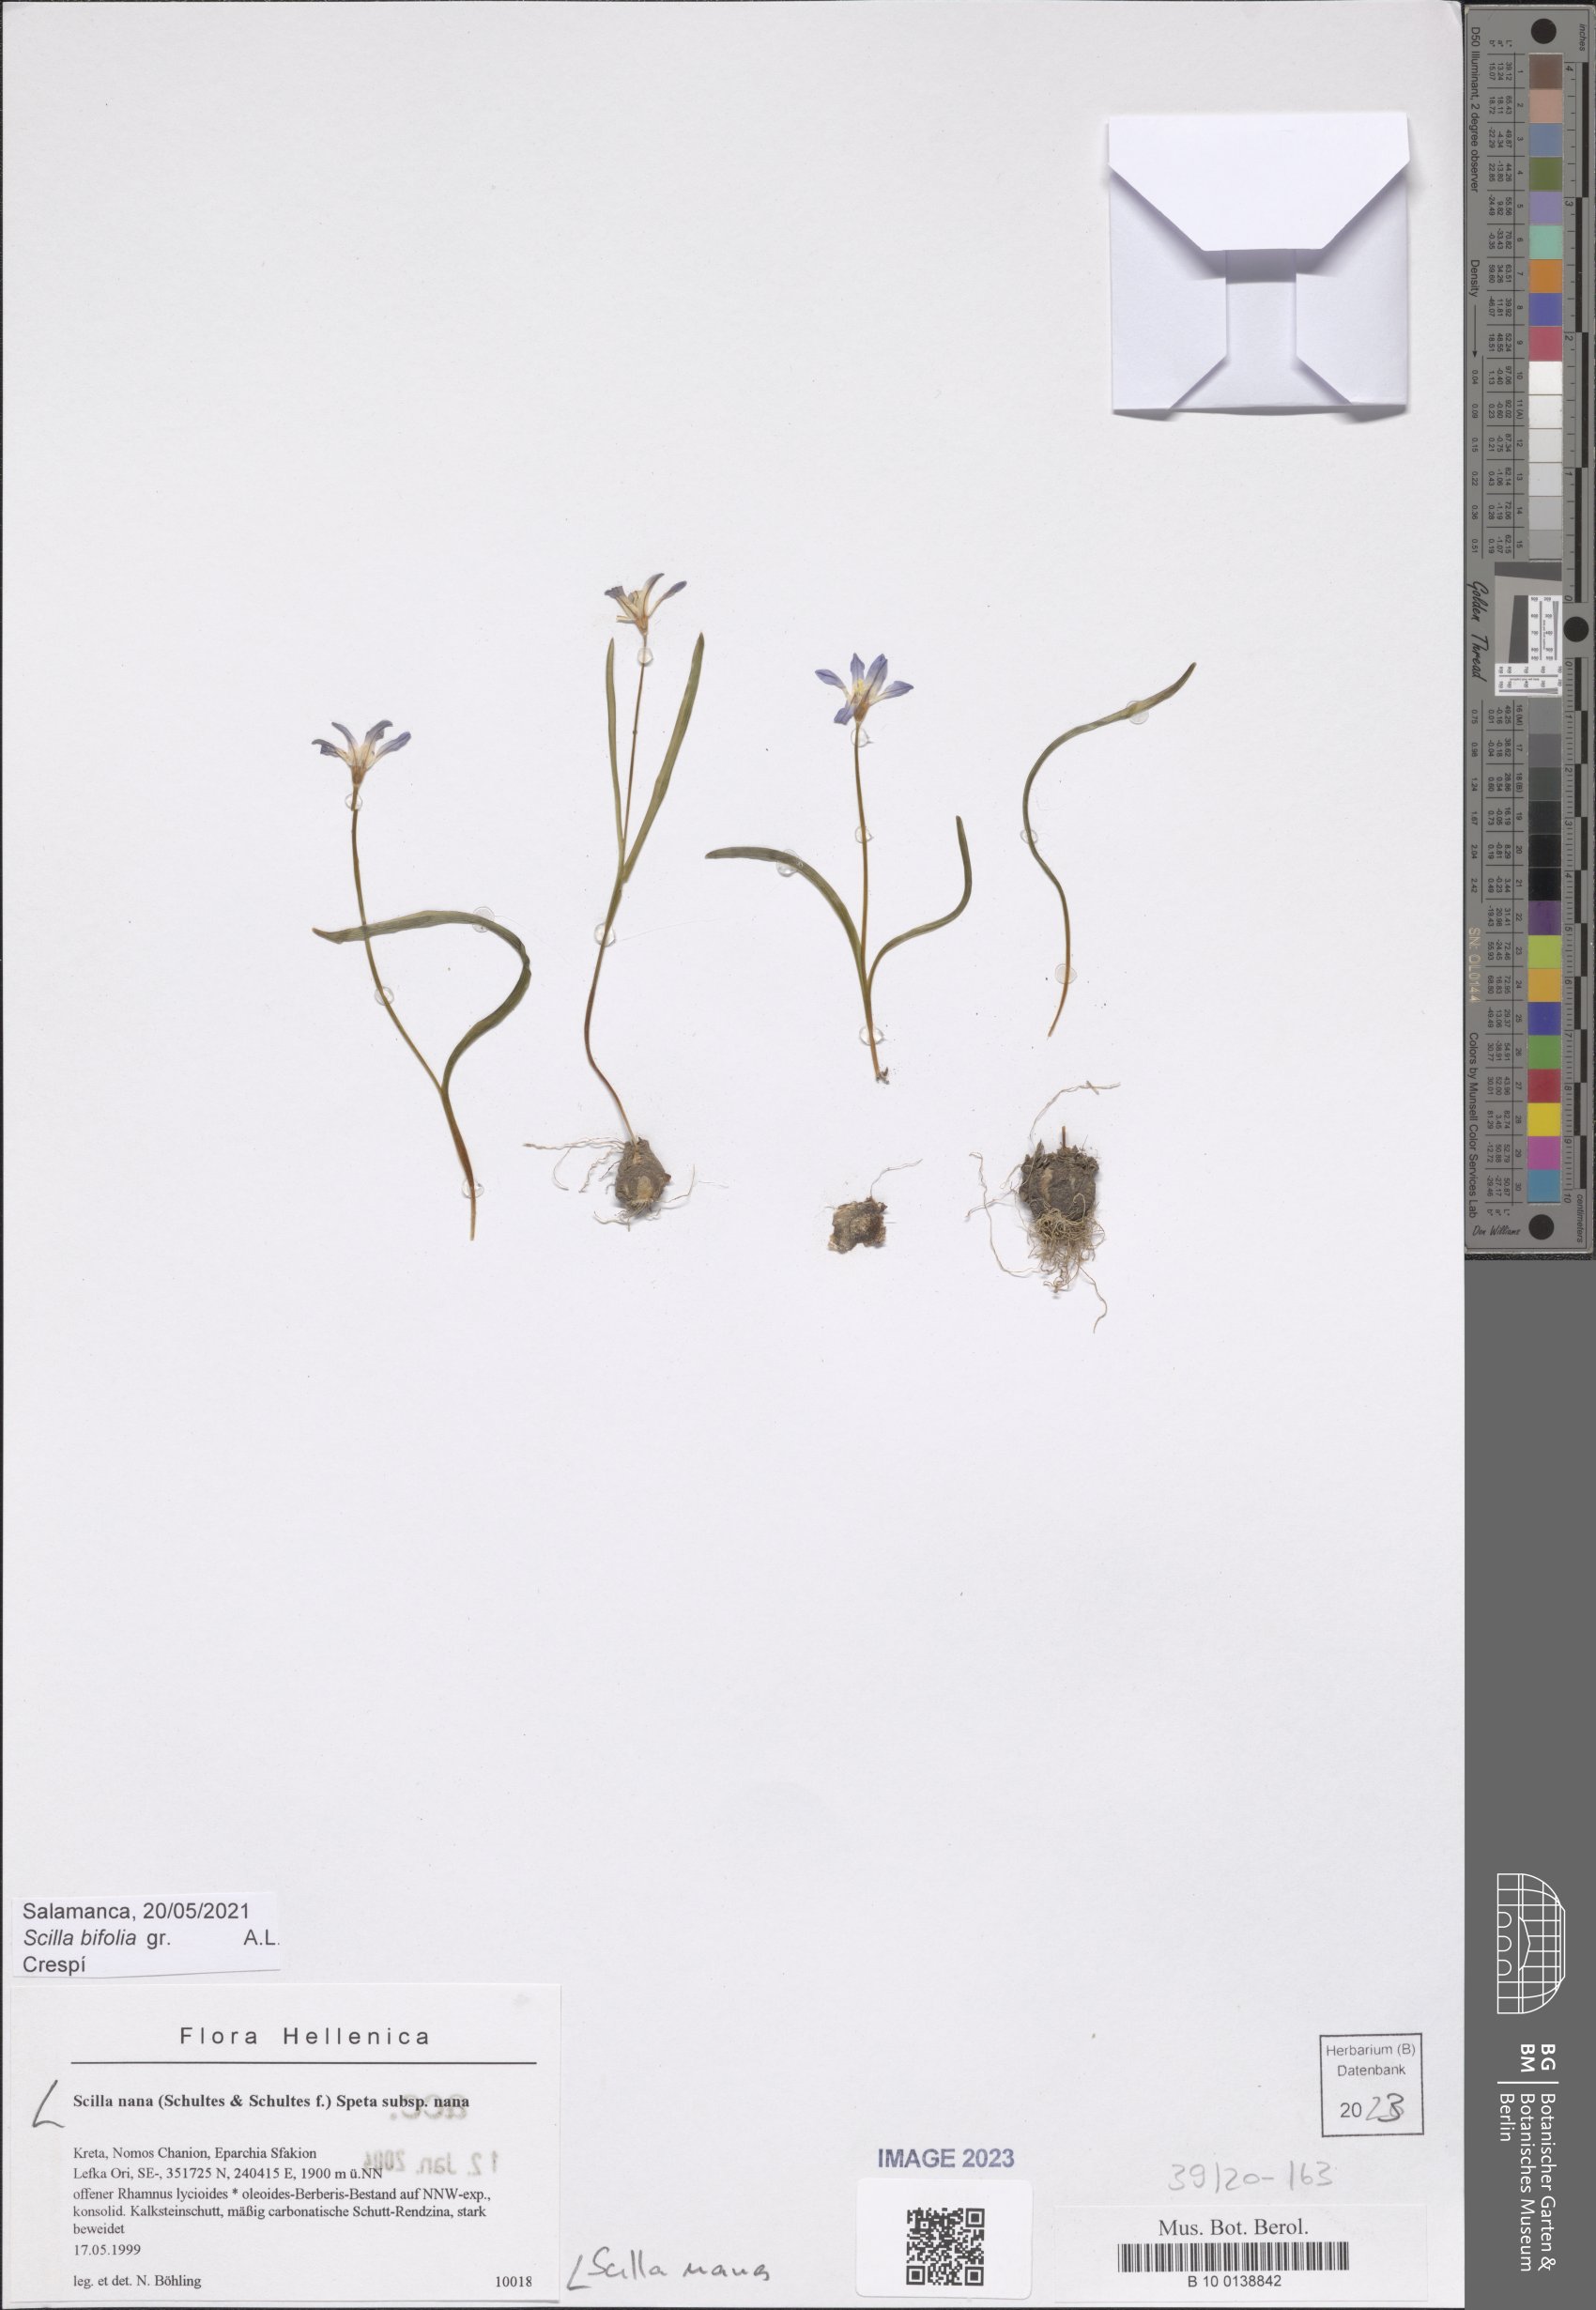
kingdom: Plantae
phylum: Tracheophyta
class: Liliopsida
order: Asparagales
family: Asparagaceae
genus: Scilla
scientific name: Scilla nana
